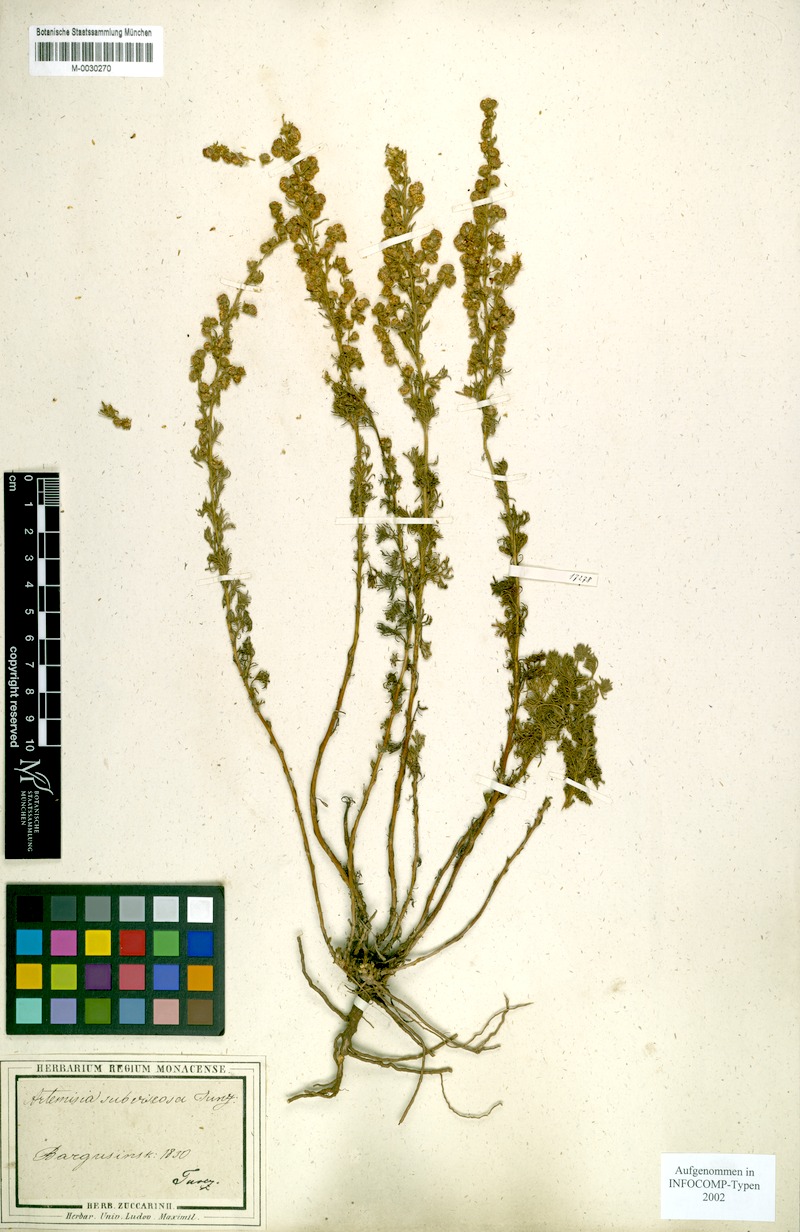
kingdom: Plantae
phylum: Tracheophyta
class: Magnoliopsida
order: Asterales
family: Asteraceae
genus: Artemisia
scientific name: Artemisia obtusiloba
